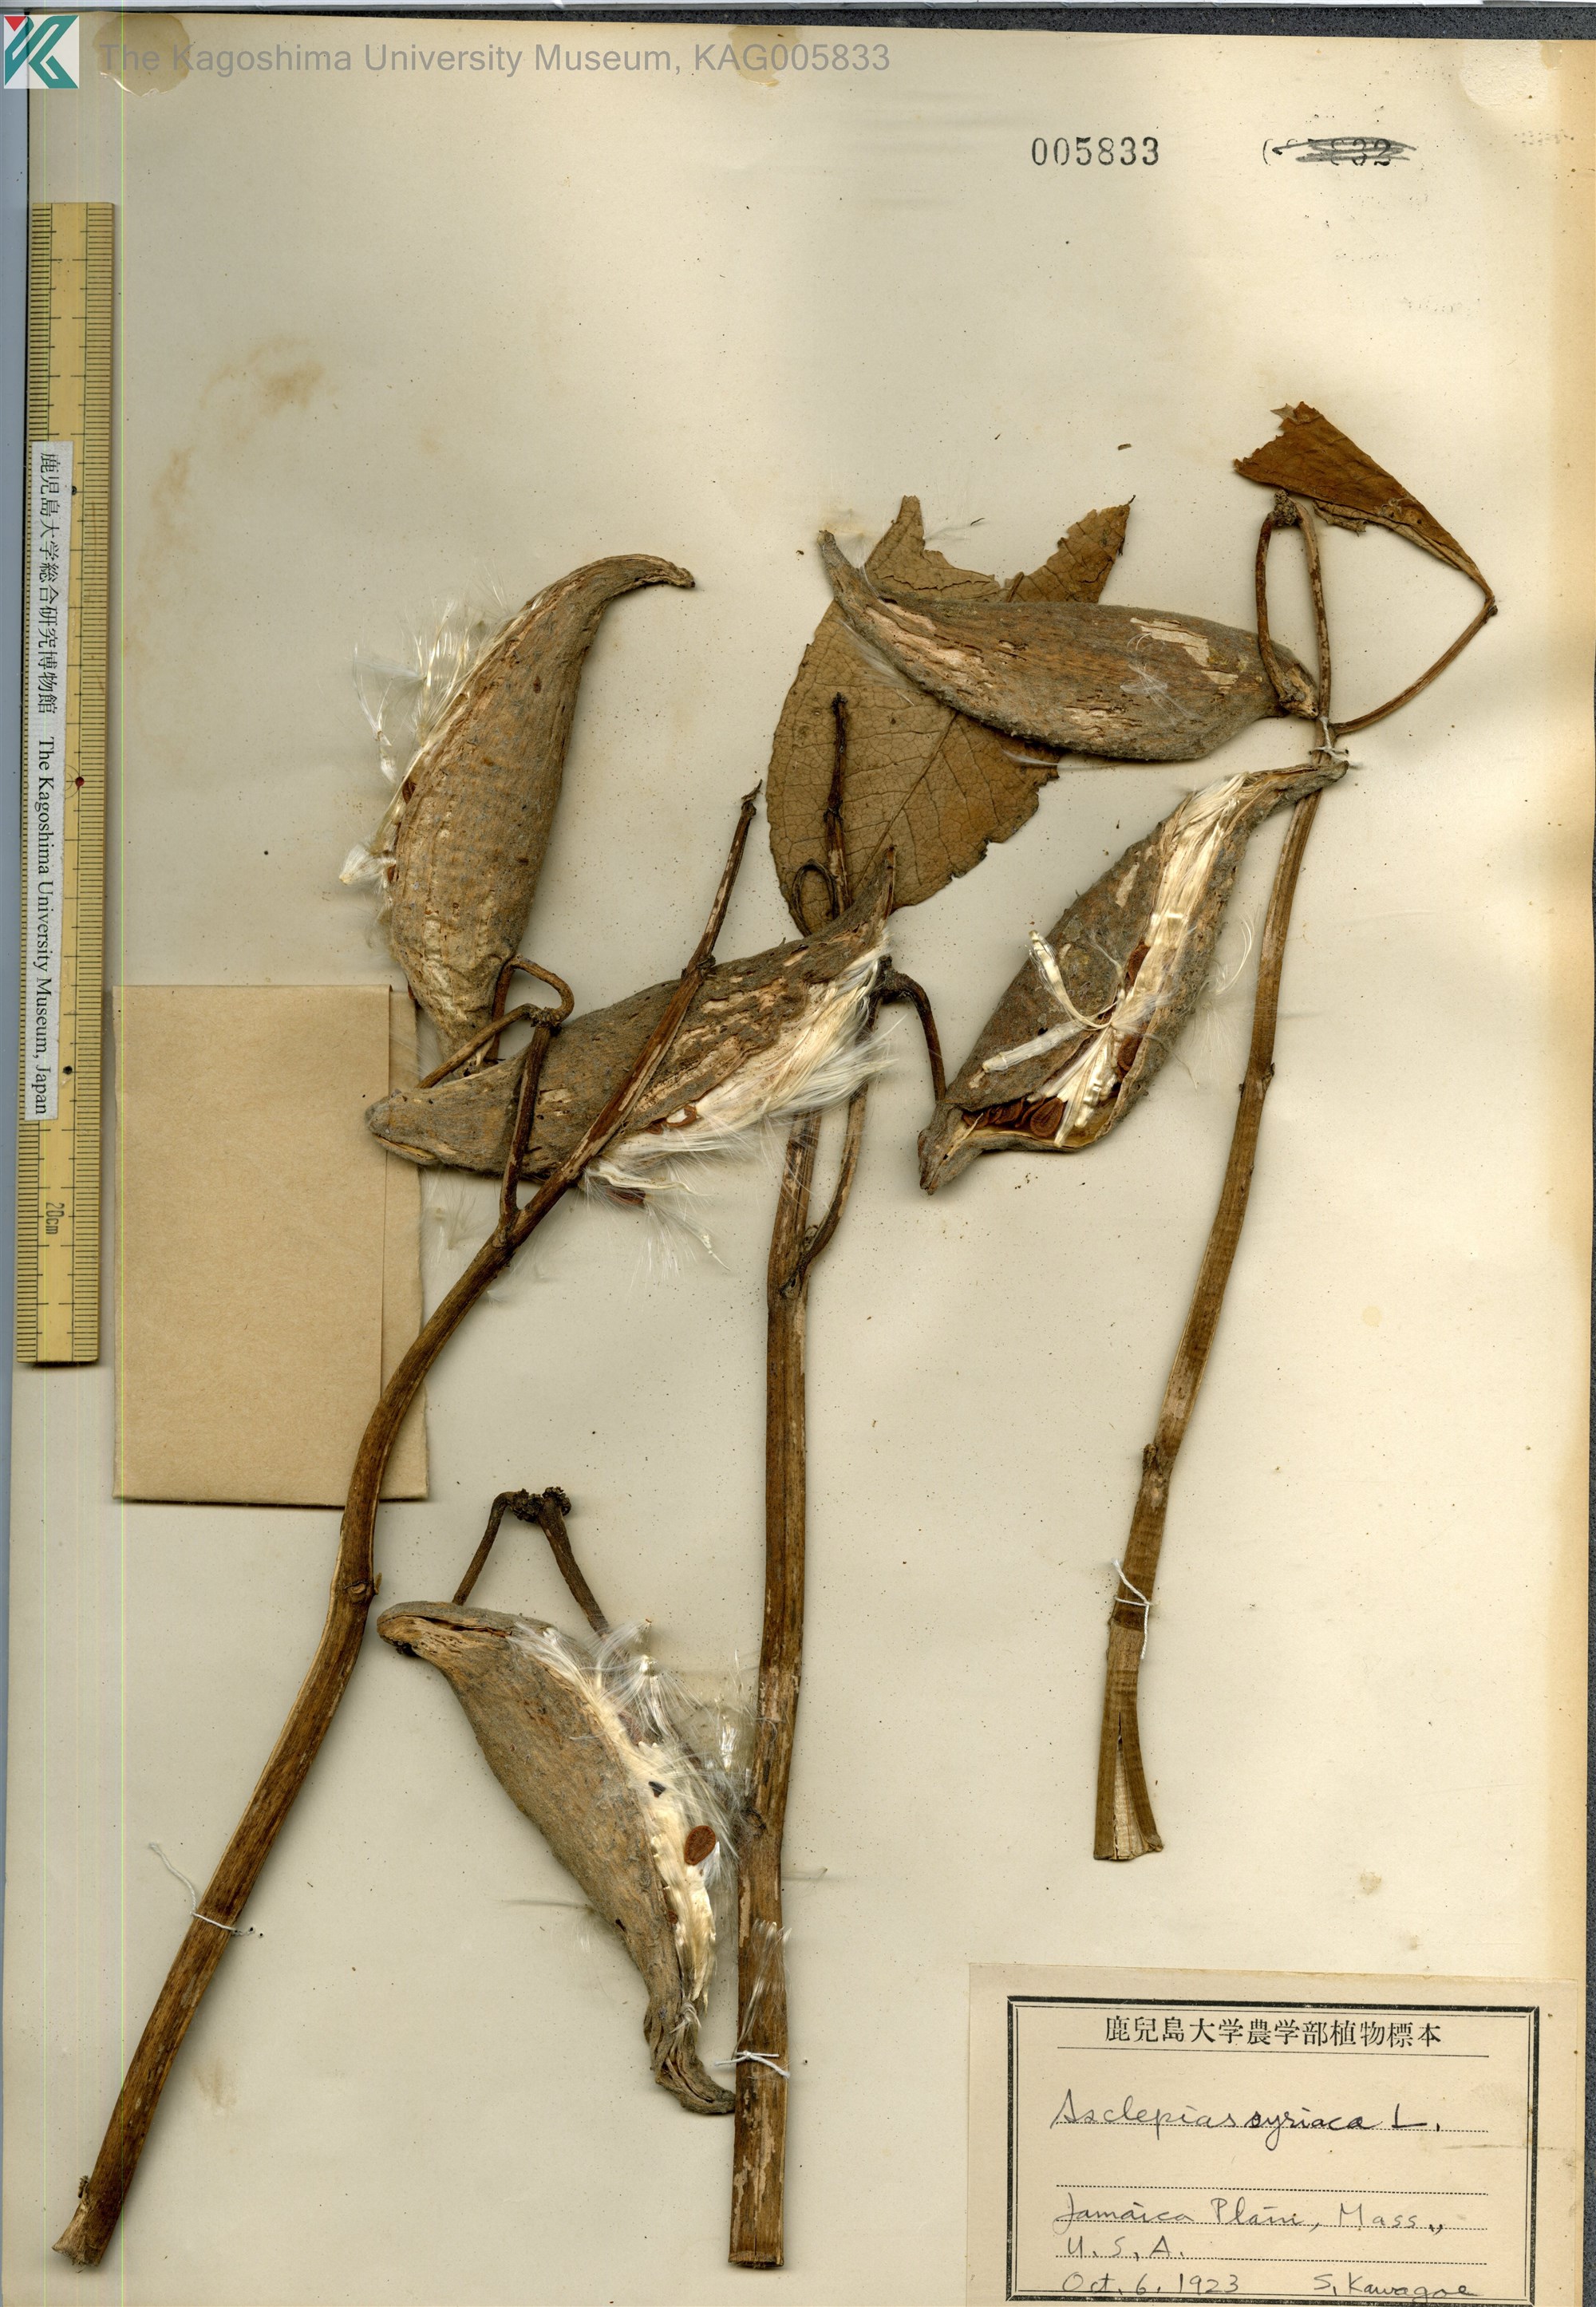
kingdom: Plantae
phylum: Tracheophyta
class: Magnoliopsida
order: Gentianales
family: Apocynaceae
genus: Asclepias
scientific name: Asclepias syriaca
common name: Common milkweed
